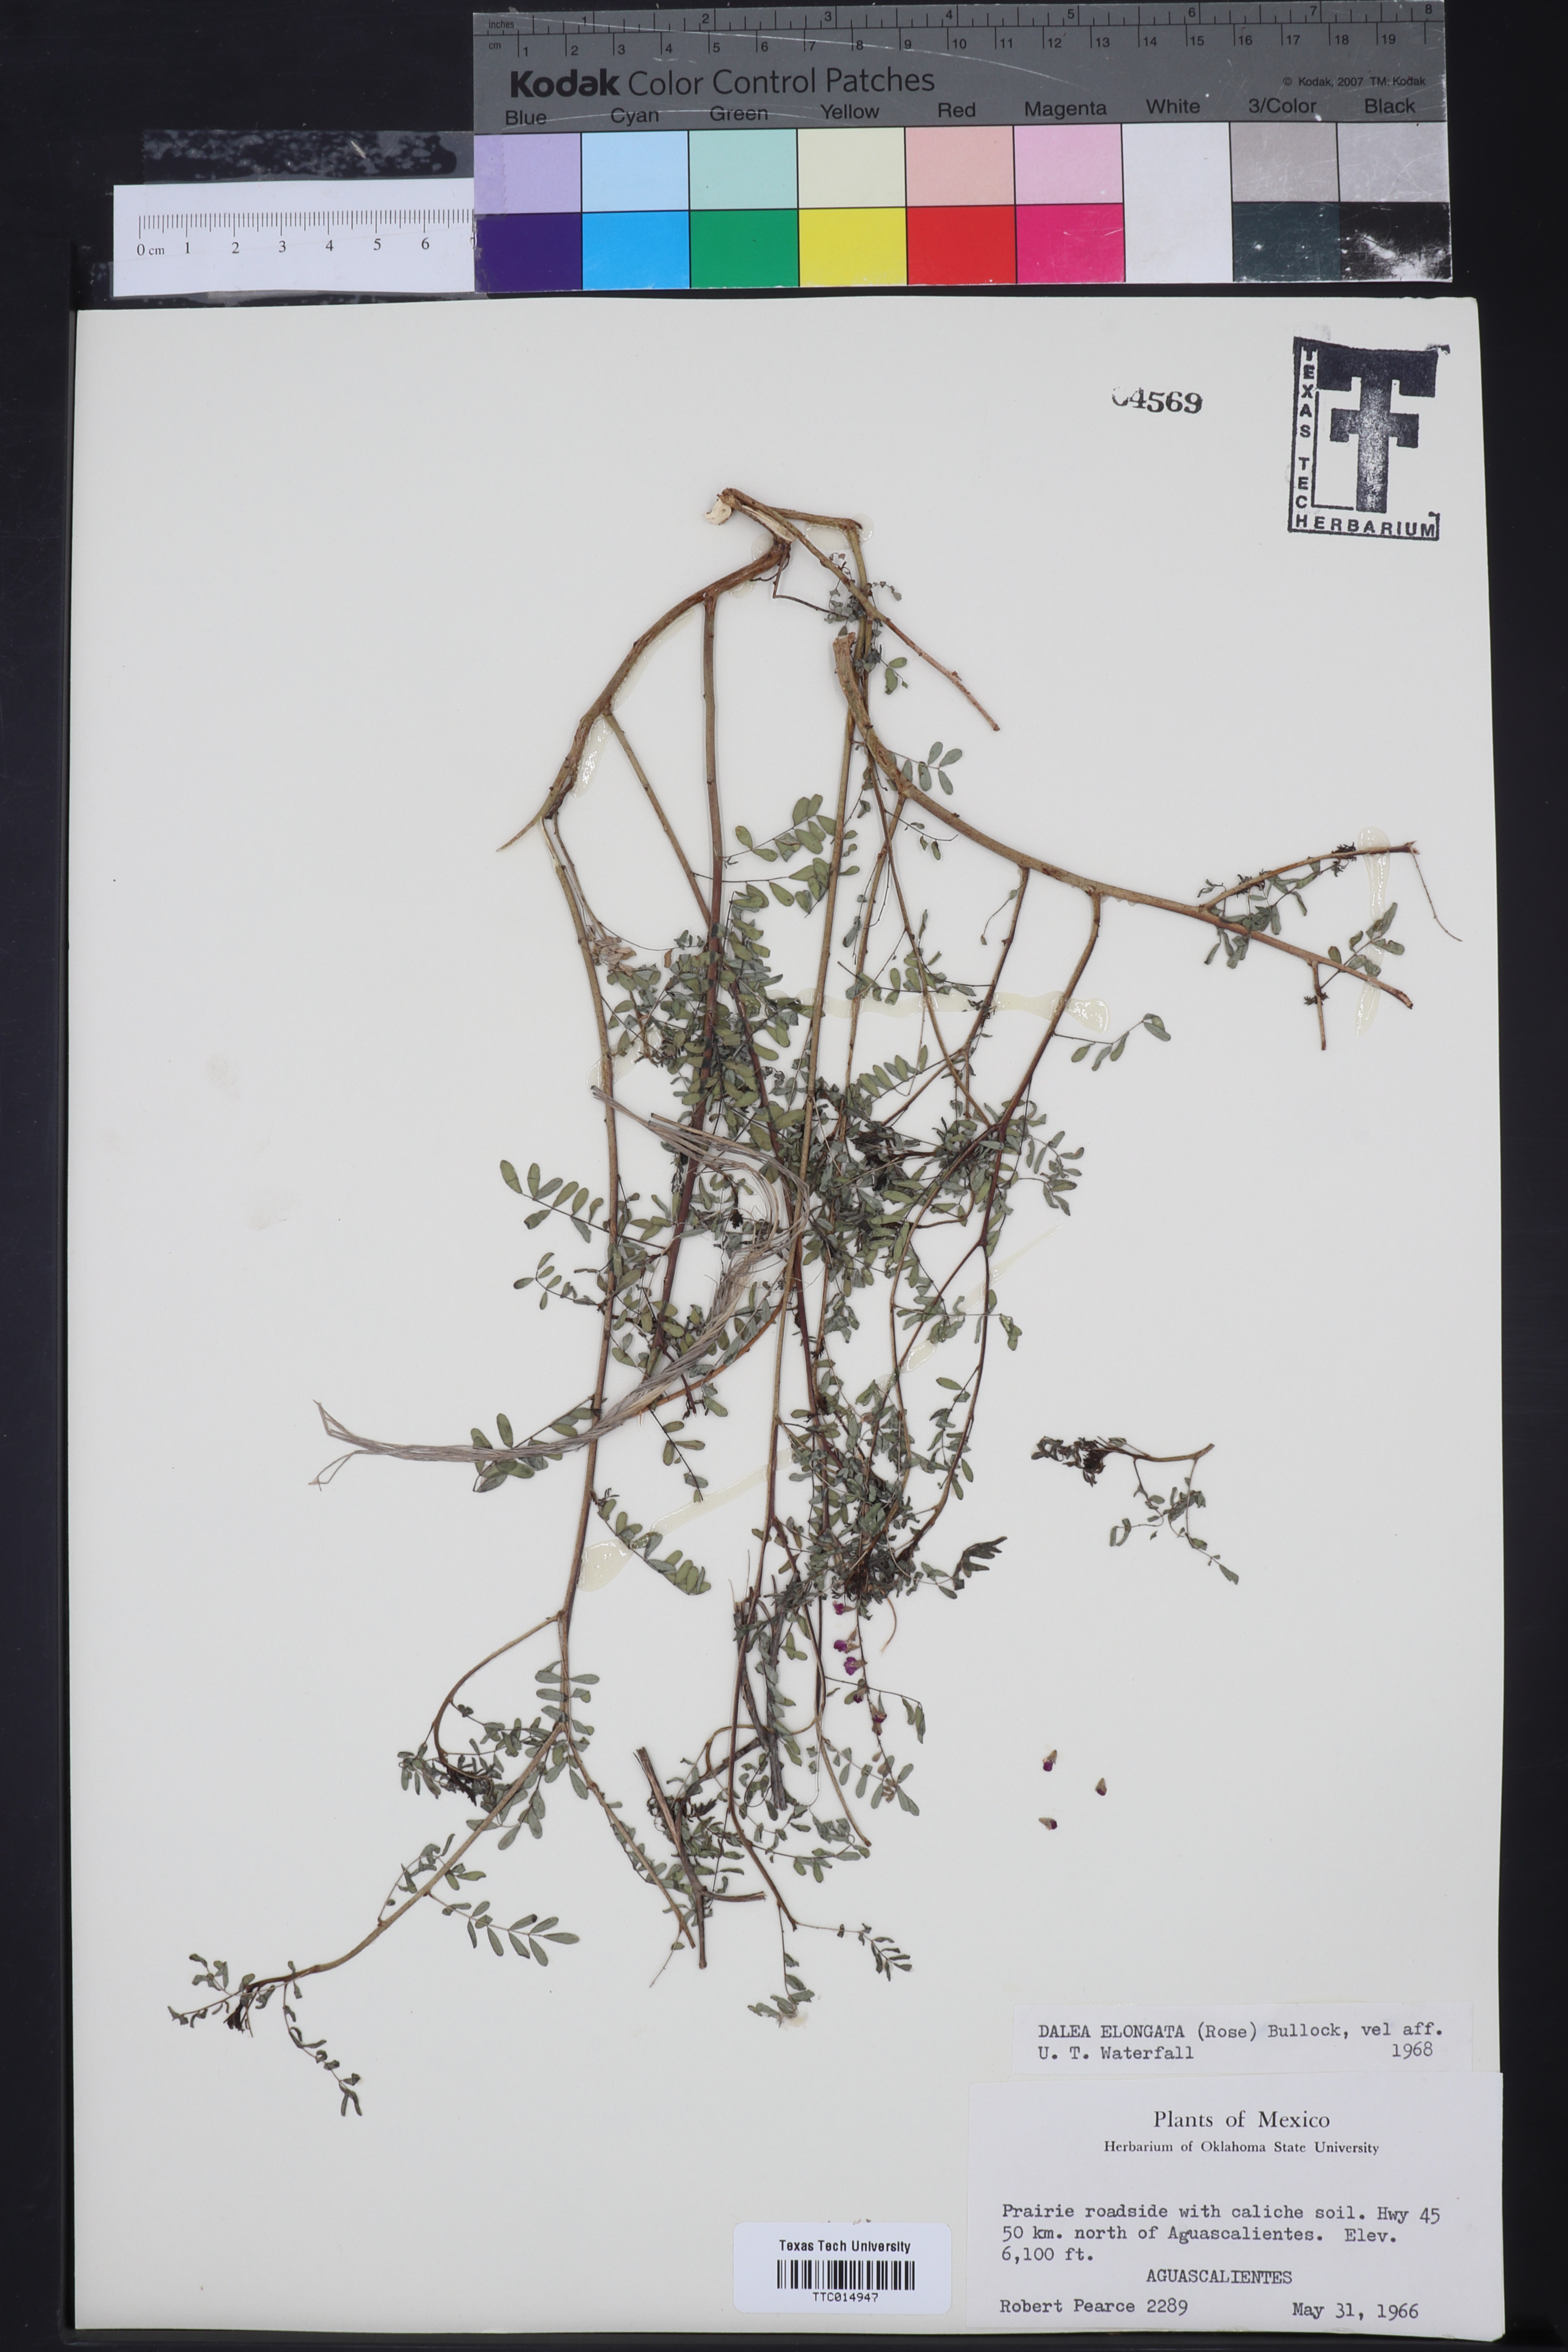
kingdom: Plantae
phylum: Tracheophyta
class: Magnoliopsida
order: Fabales
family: Fabaceae
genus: Marina
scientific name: Marina neglecta
